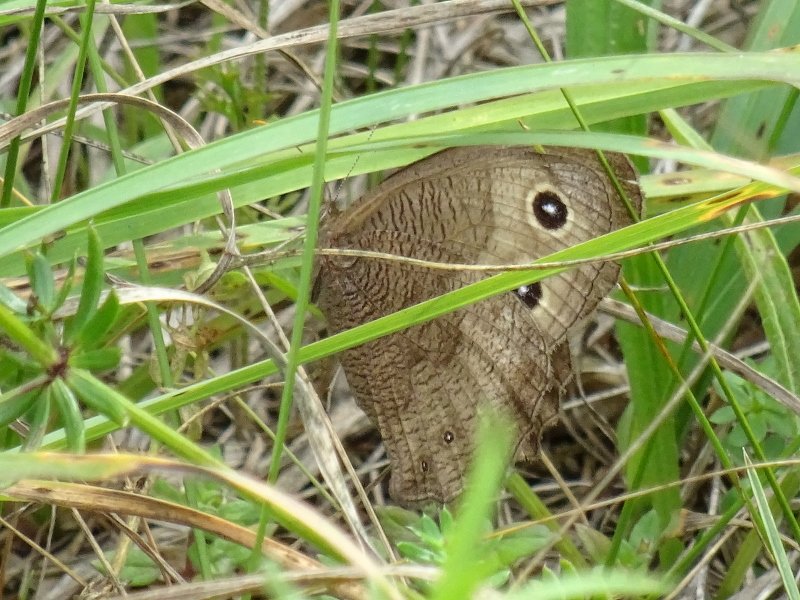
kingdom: Animalia
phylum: Arthropoda
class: Insecta
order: Lepidoptera
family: Nymphalidae
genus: Cercyonis
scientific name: Cercyonis pegala
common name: Common Wood-Nymph
